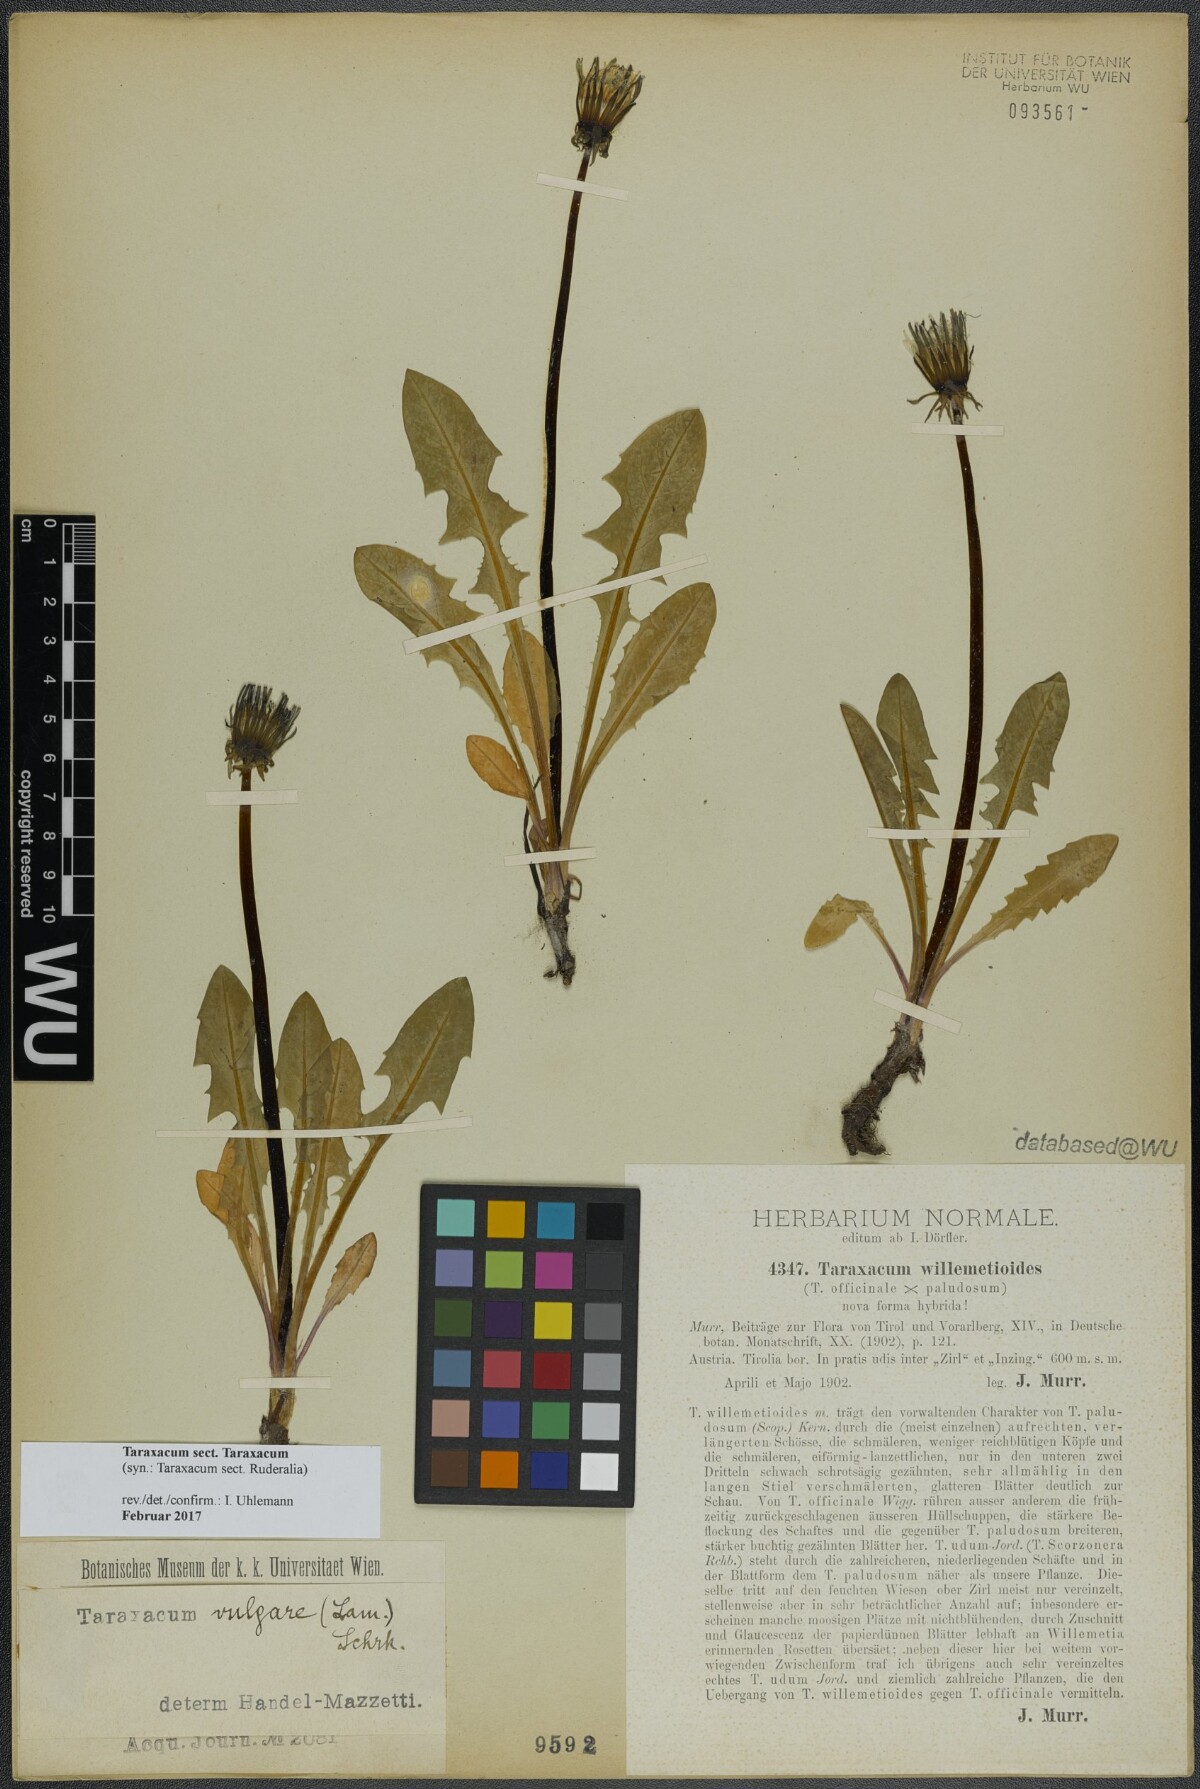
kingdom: Plantae
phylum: Tracheophyta
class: Magnoliopsida
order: Asterales
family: Asteraceae
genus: Taraxacum
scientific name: Taraxacum
